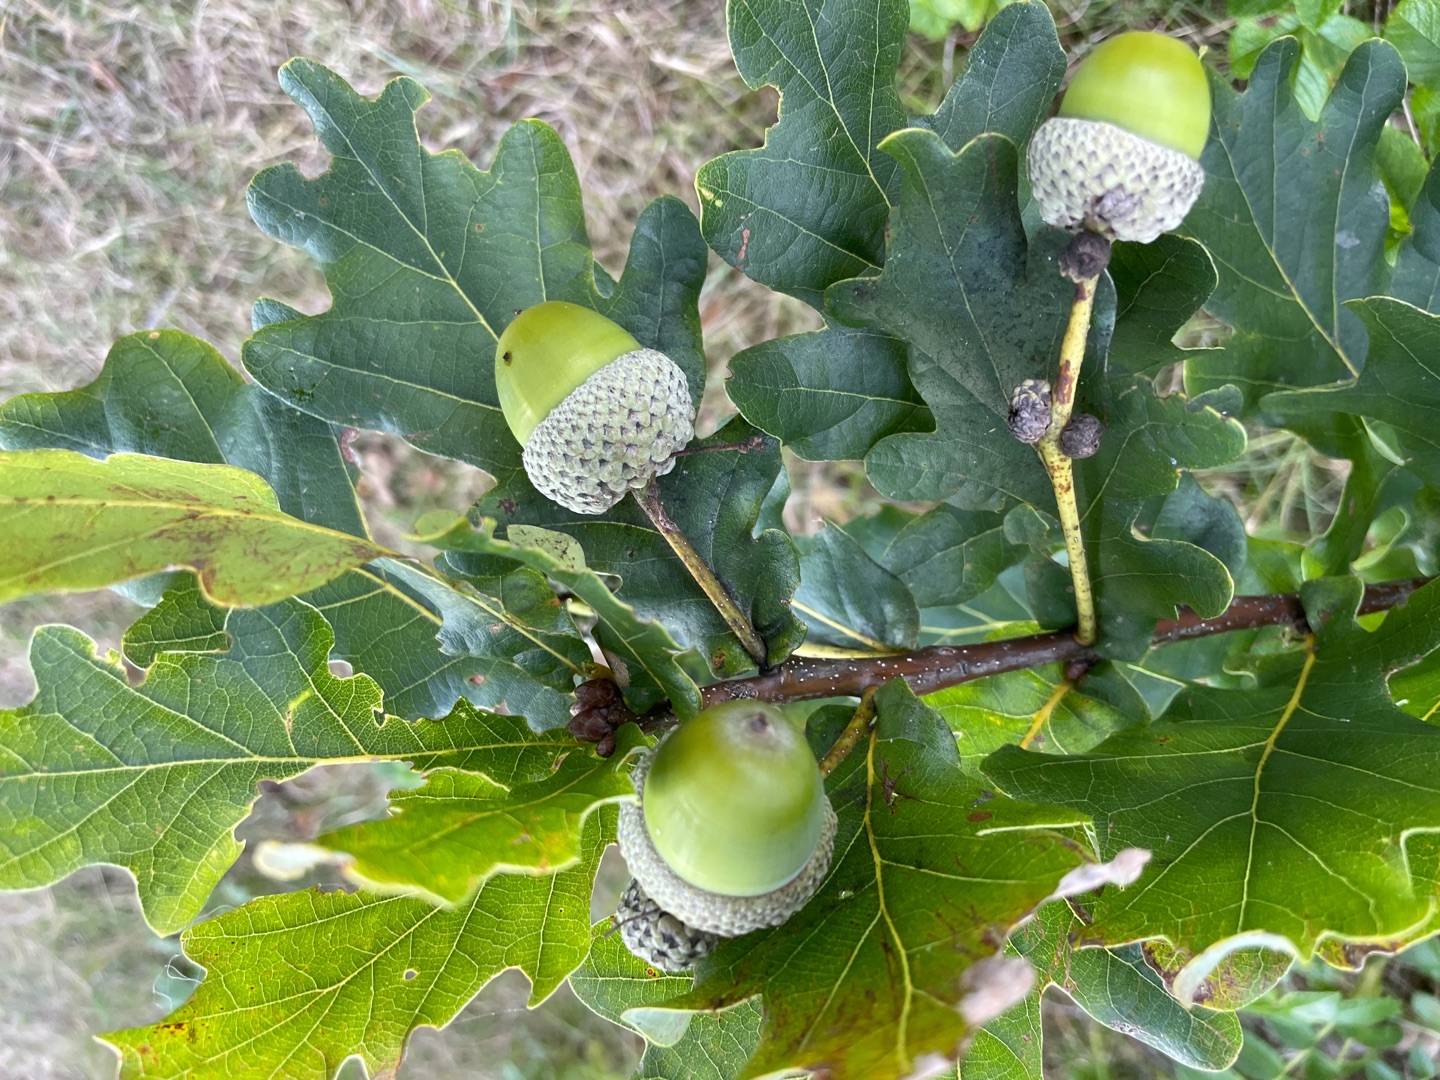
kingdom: Plantae
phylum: Tracheophyta
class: Magnoliopsida
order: Fagales
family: Fagaceae
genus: Quercus
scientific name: Quercus robur
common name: Stilk-eg/almindelig eg
